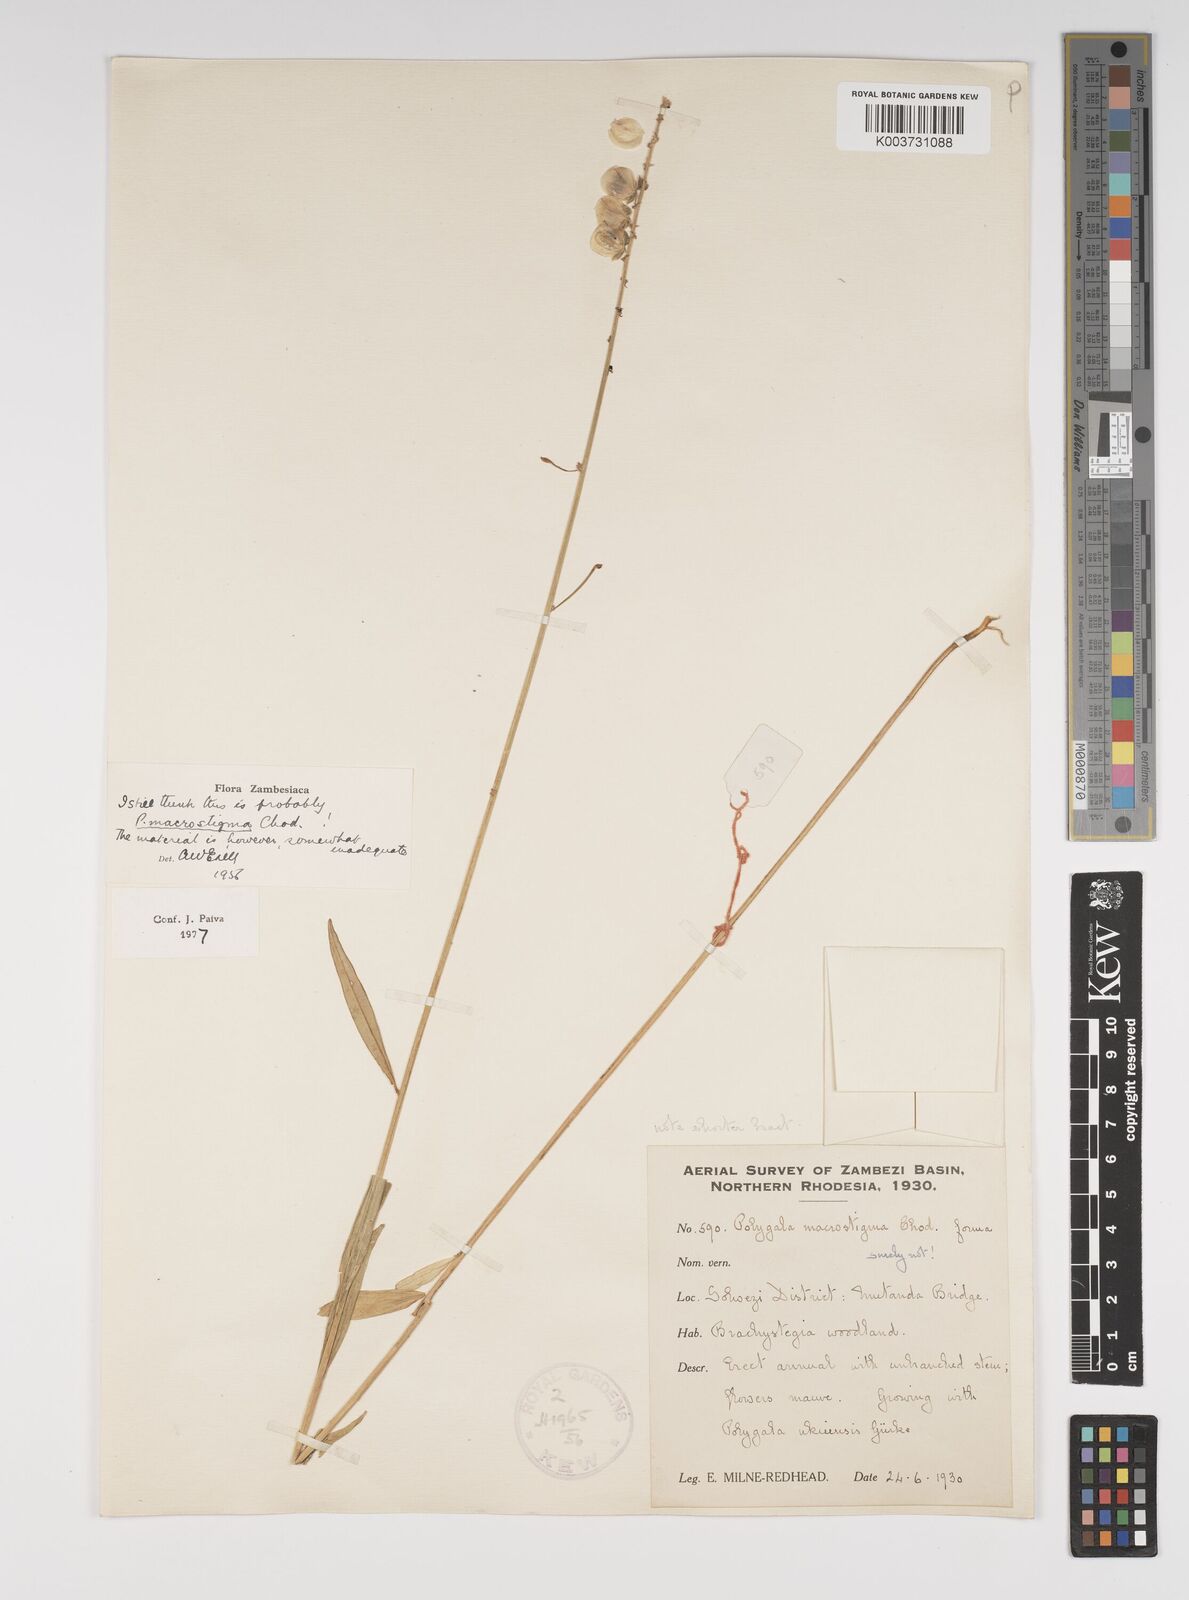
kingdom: Plantae
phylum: Tracheophyta
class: Magnoliopsida
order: Fabales
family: Polygalaceae
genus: Polygala
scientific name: Polygala macrostigma
